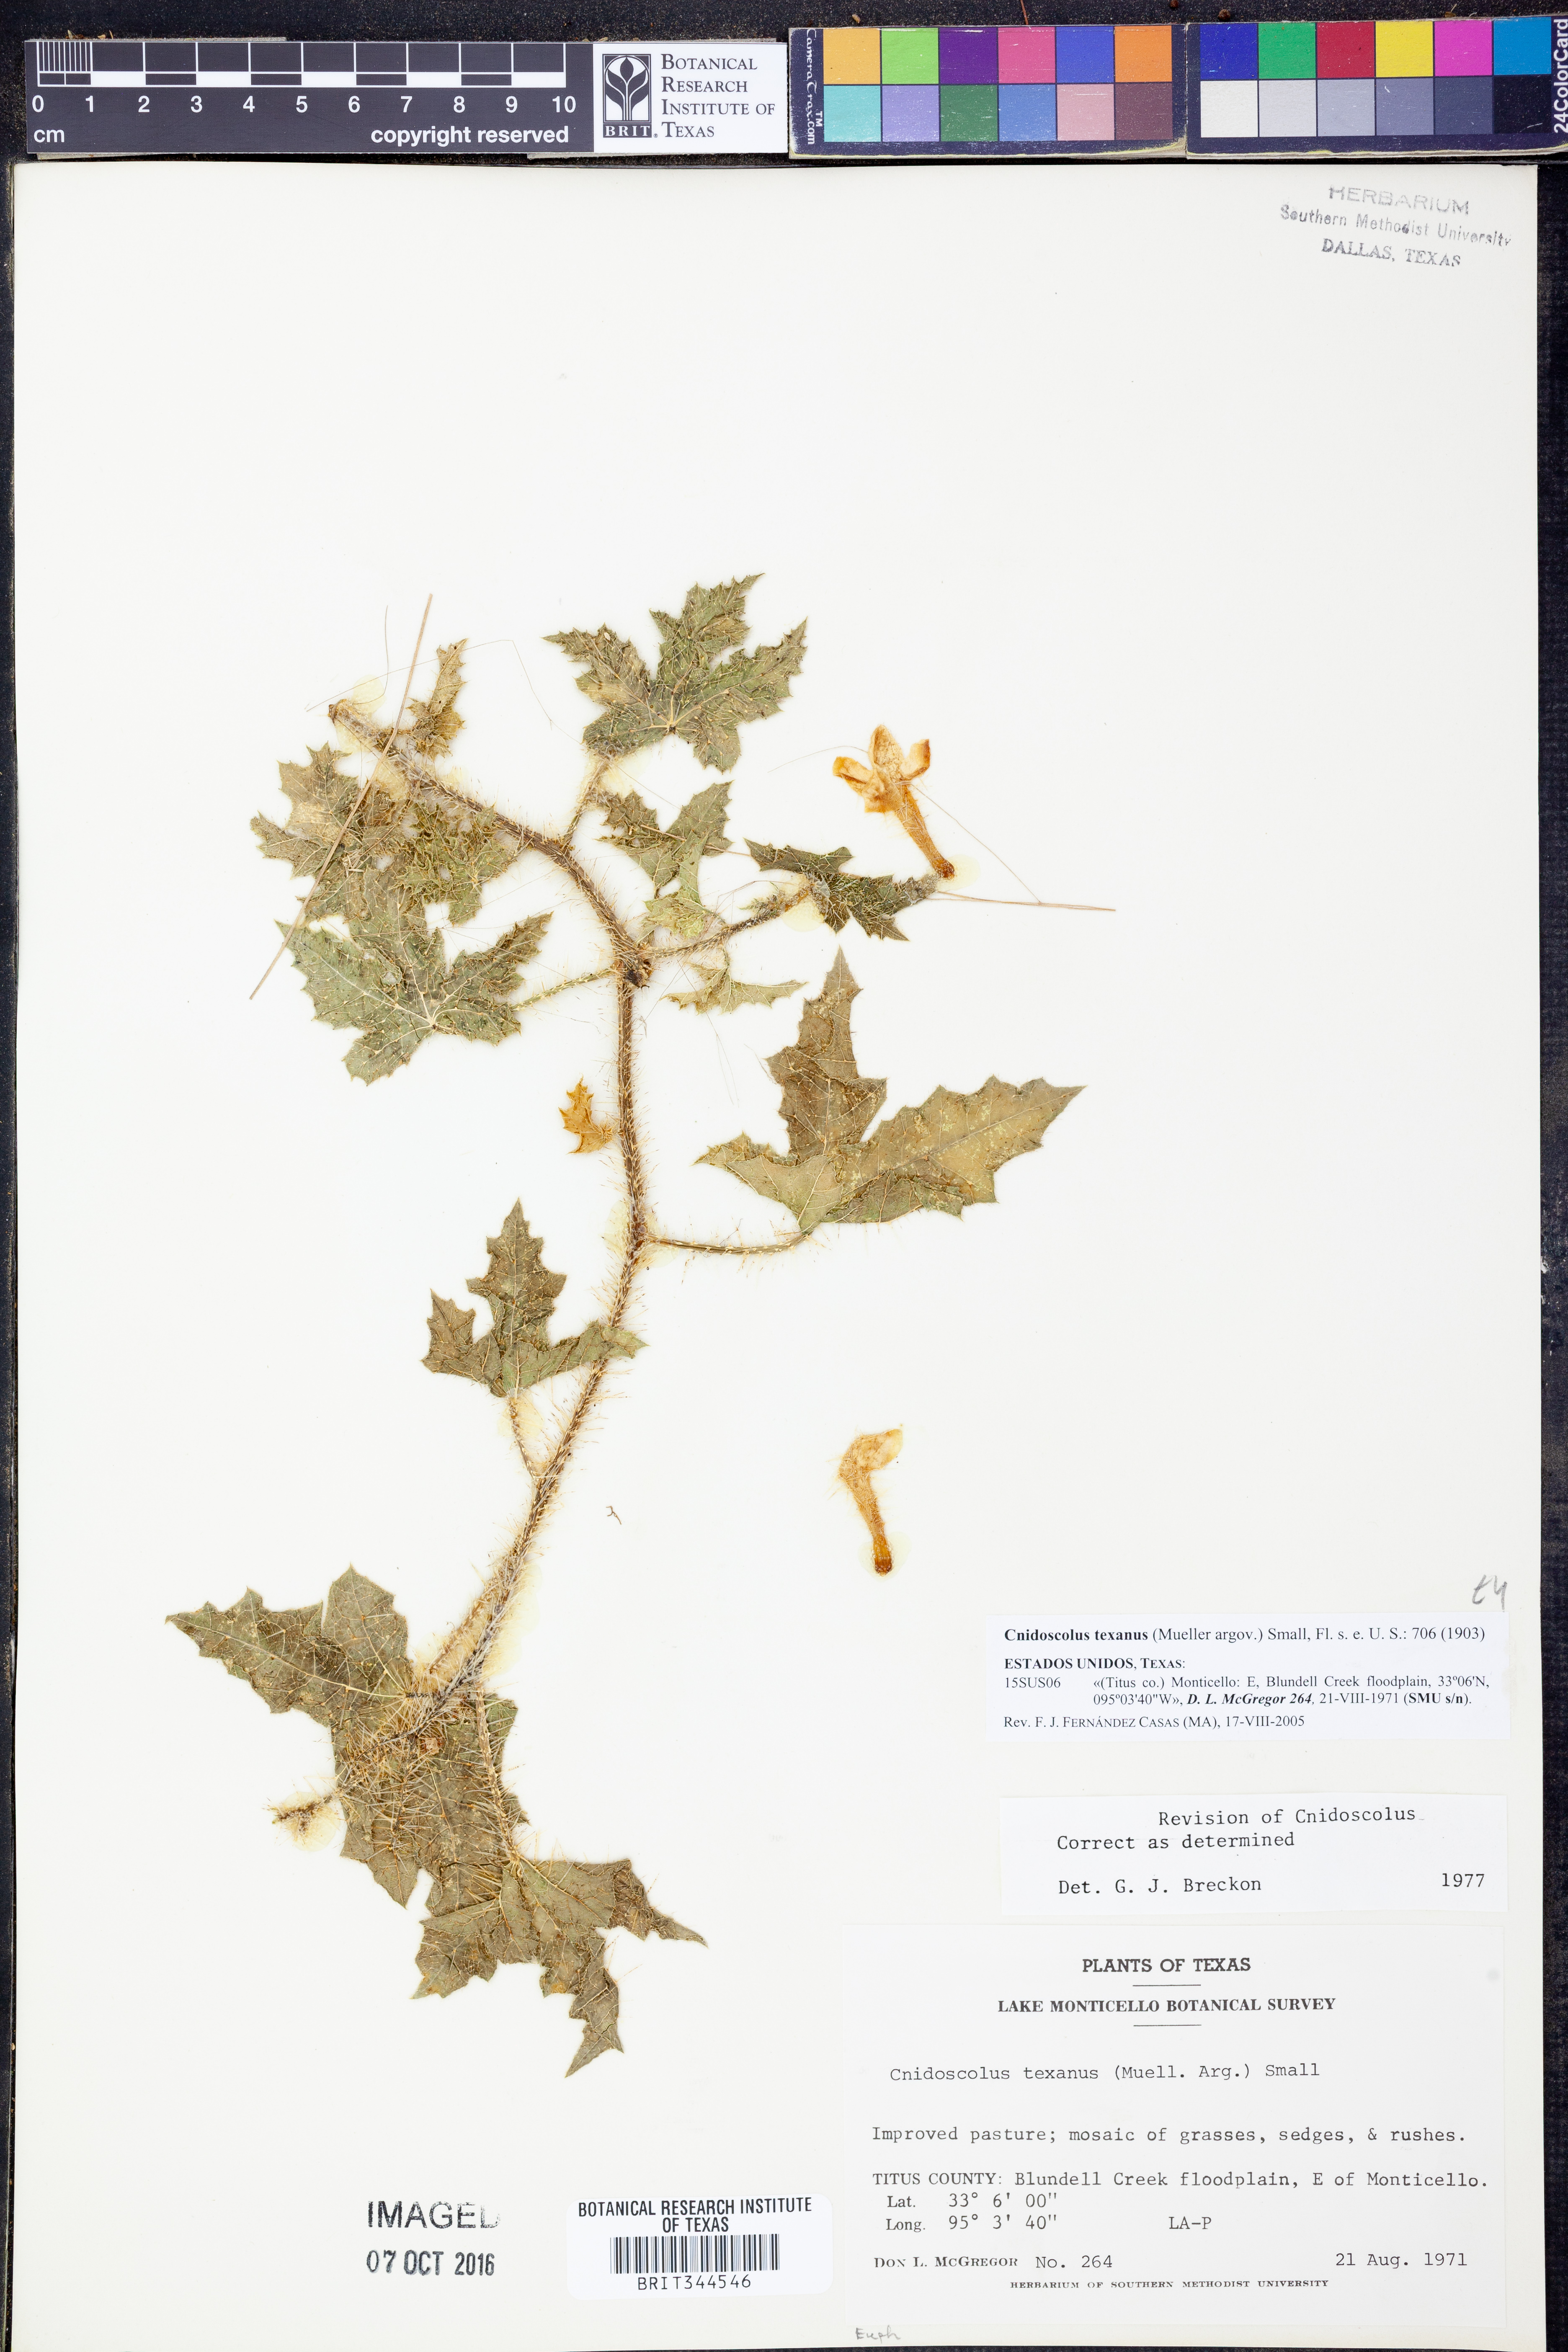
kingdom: Plantae
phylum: Tracheophyta
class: Magnoliopsida
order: Malpighiales
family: Euphorbiaceae
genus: Cnidoscolus
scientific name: Cnidoscolus texanus
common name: Texas bull-nettle
